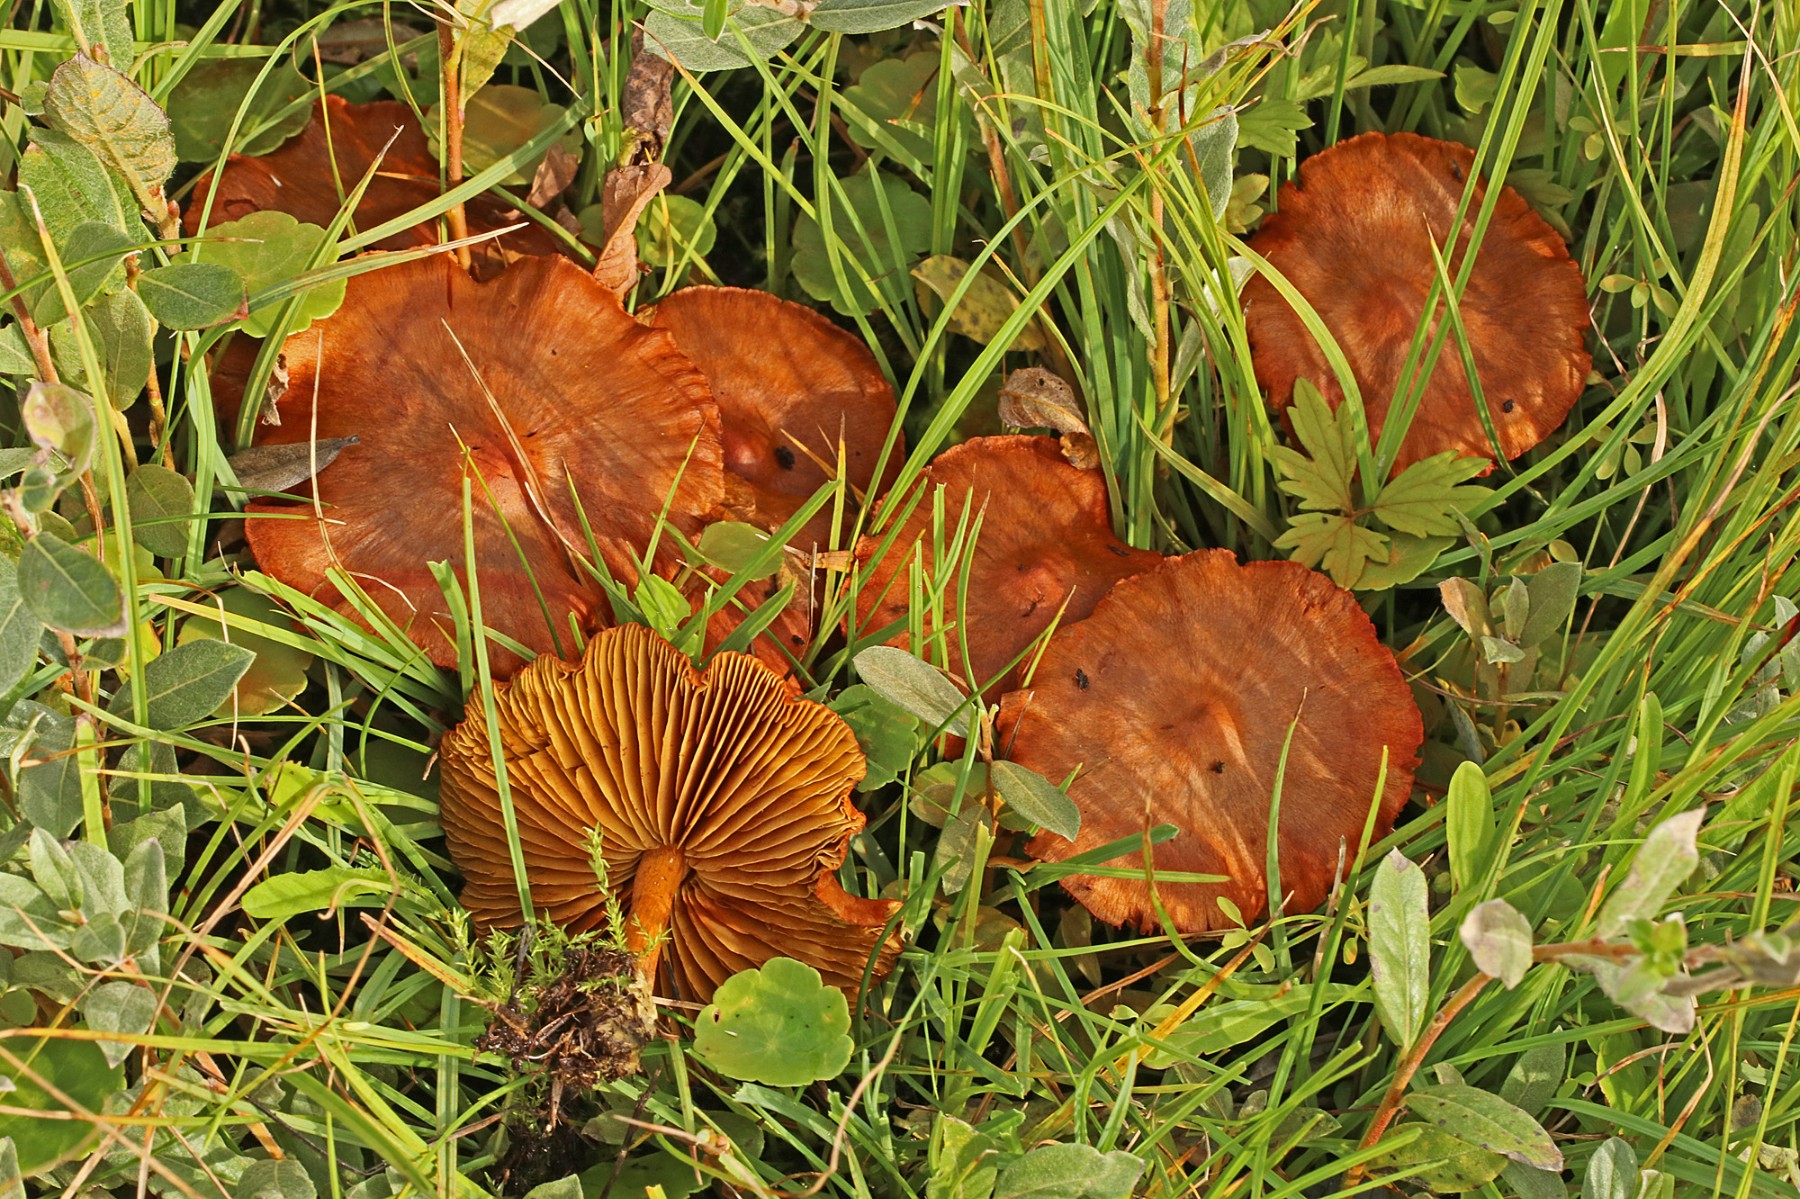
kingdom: Fungi
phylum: Basidiomycota
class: Agaricomycetes
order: Agaricales
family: Cortinariaceae
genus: Cortinarius
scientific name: Cortinarius
